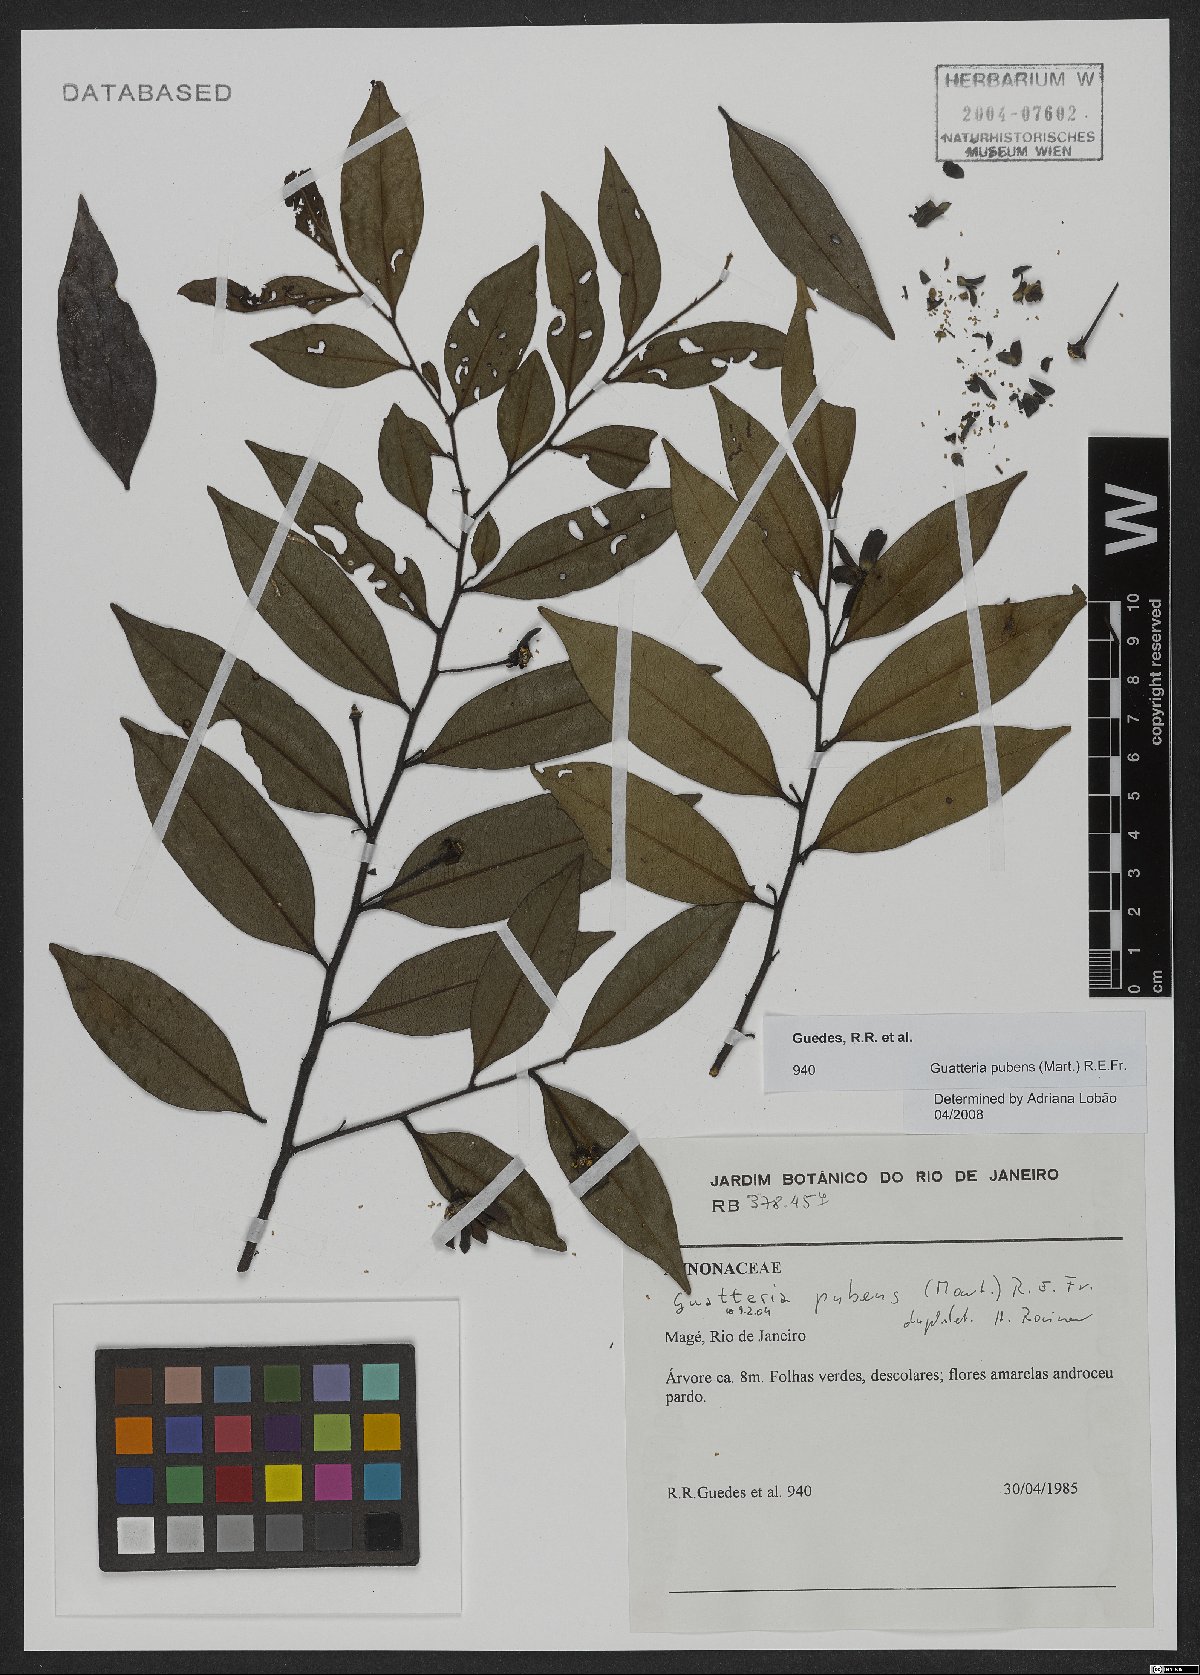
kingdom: Plantae
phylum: Tracheophyta
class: Magnoliopsida
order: Magnoliales
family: Annonaceae
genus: Guatteria
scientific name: Guatteria sellowiana
